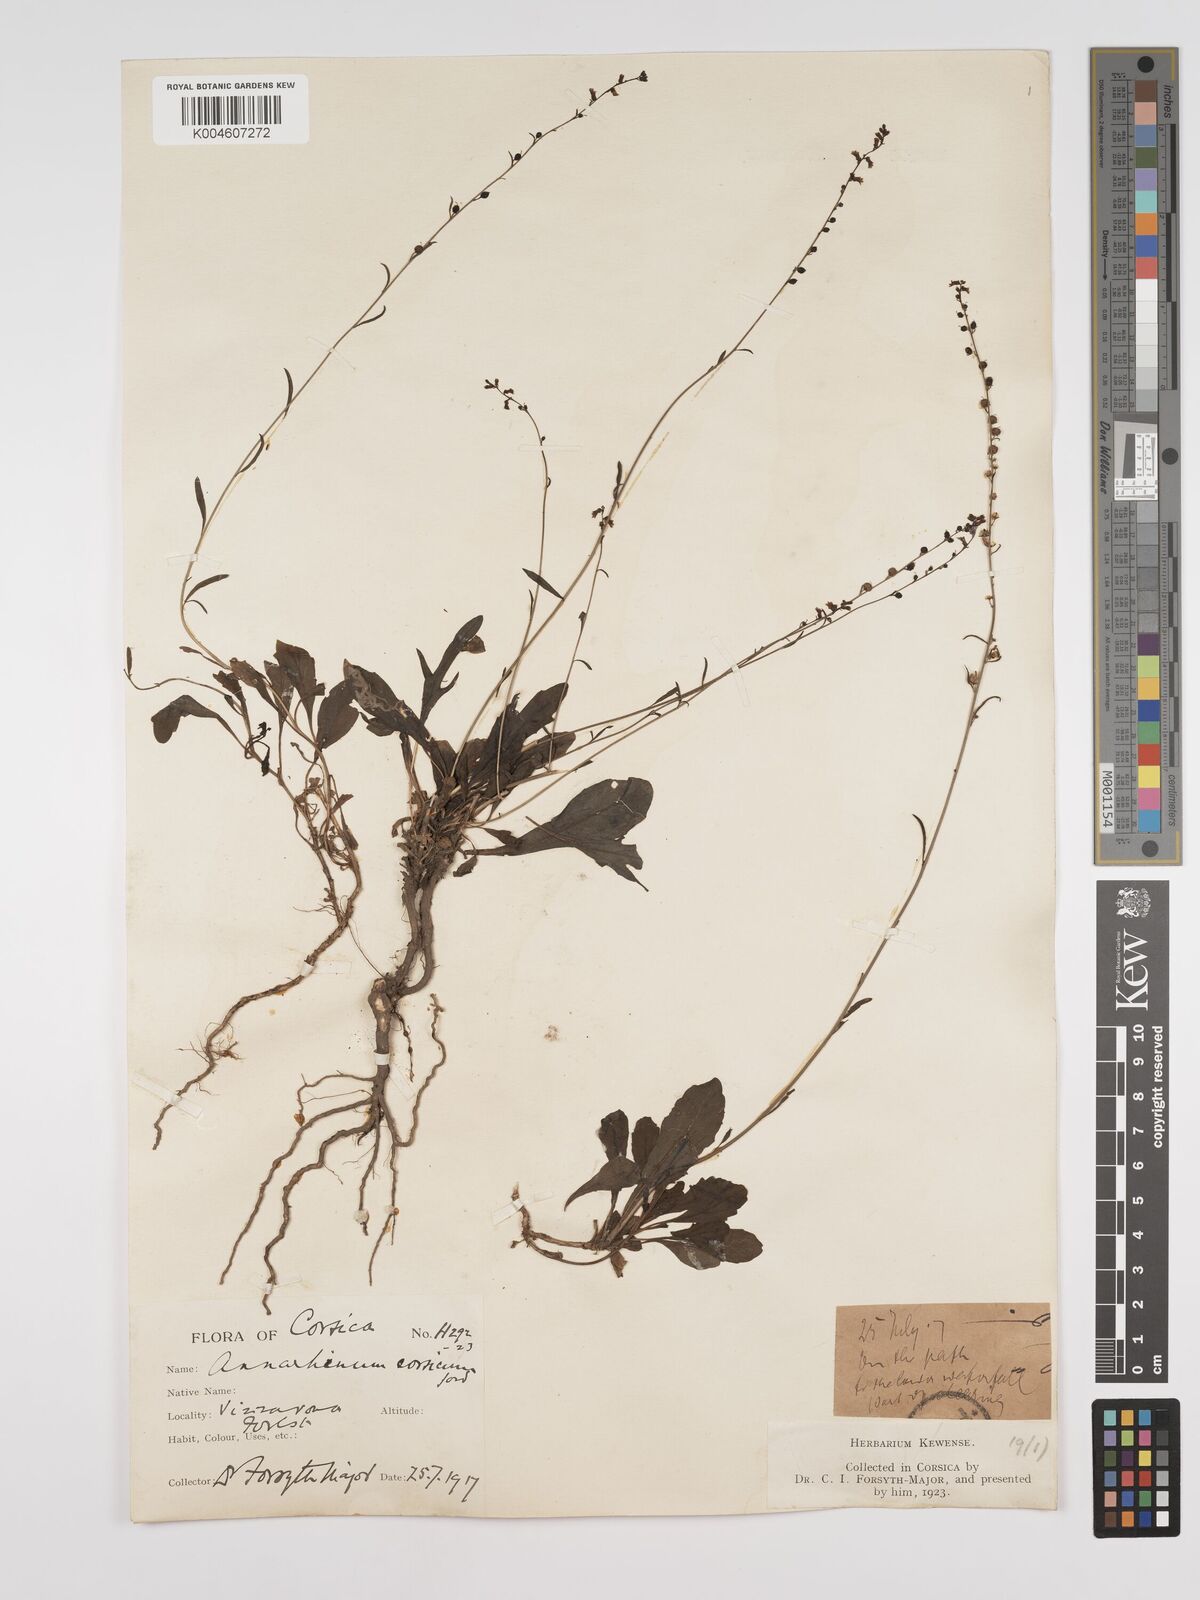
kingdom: Plantae
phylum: Tracheophyta
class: Magnoliopsida
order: Lamiales
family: Plantaginaceae
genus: Anarrhinum
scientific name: Anarrhinum corsicum
